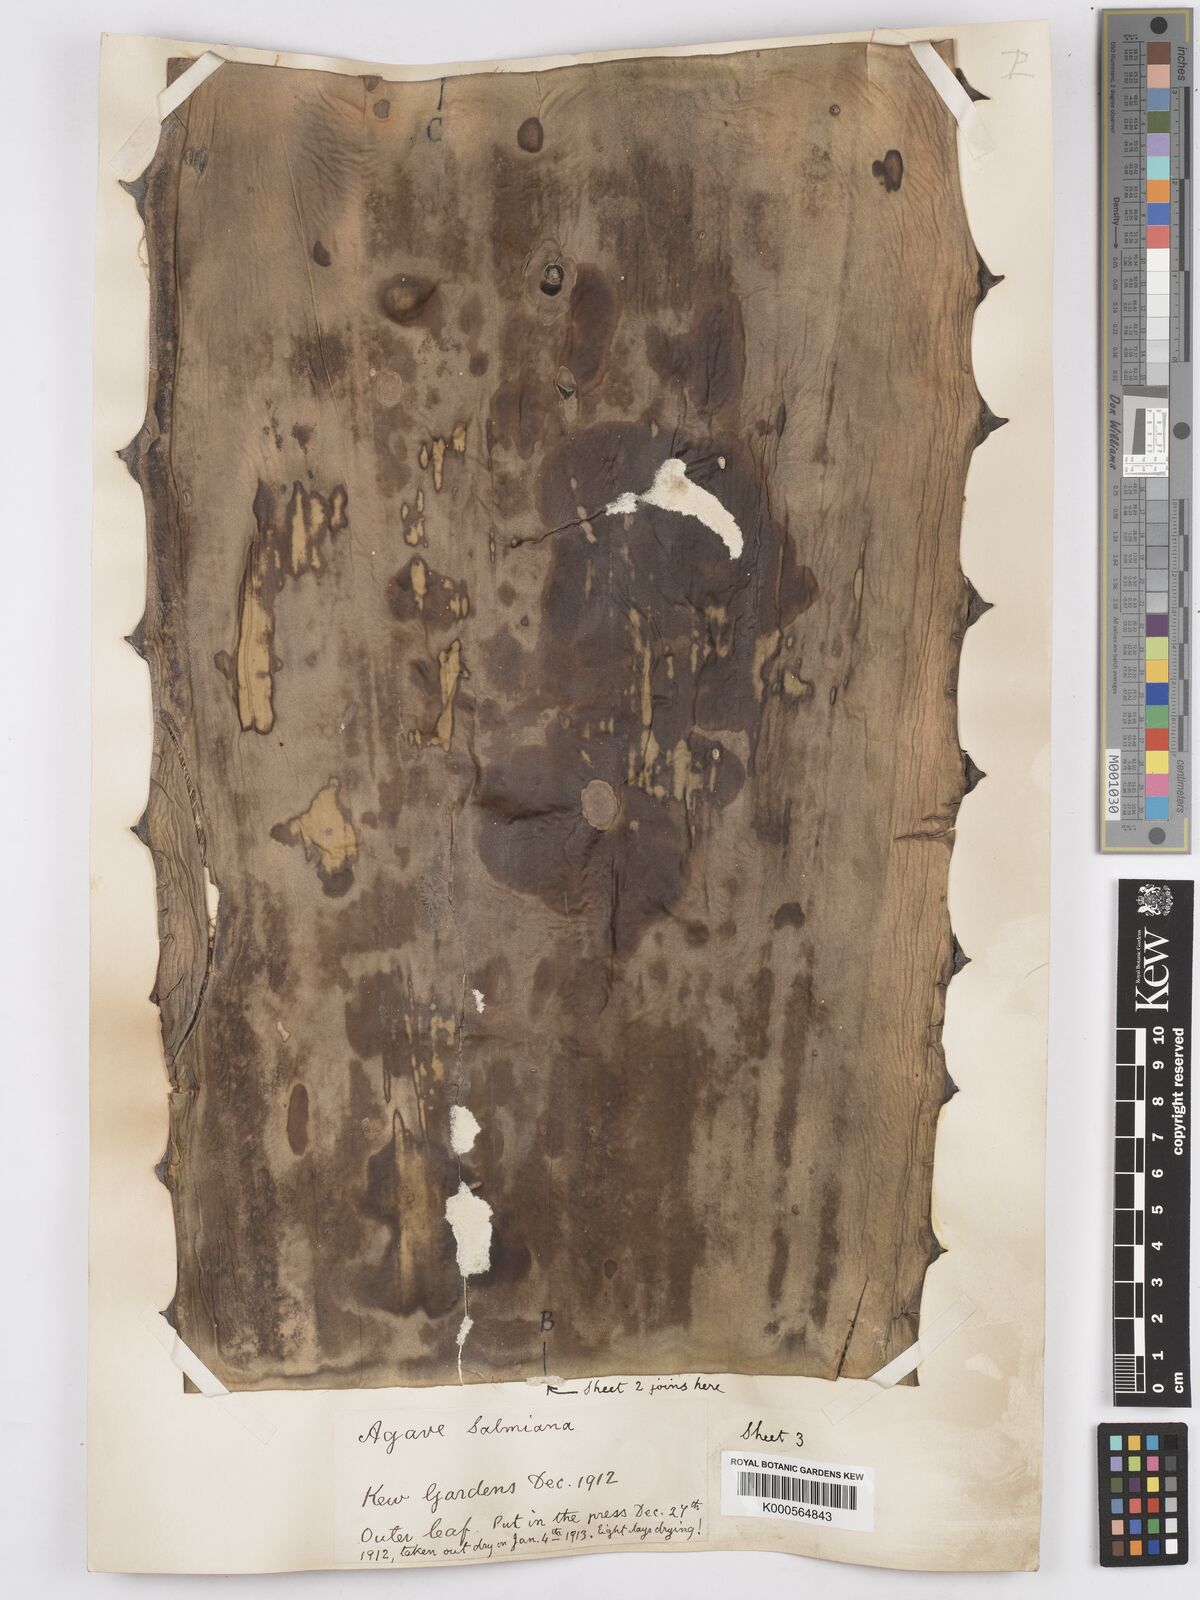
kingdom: Plantae
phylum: Tracheophyta
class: Liliopsida
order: Asparagales
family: Asparagaceae
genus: Agave
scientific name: Agave salmiana
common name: Pulque agave
